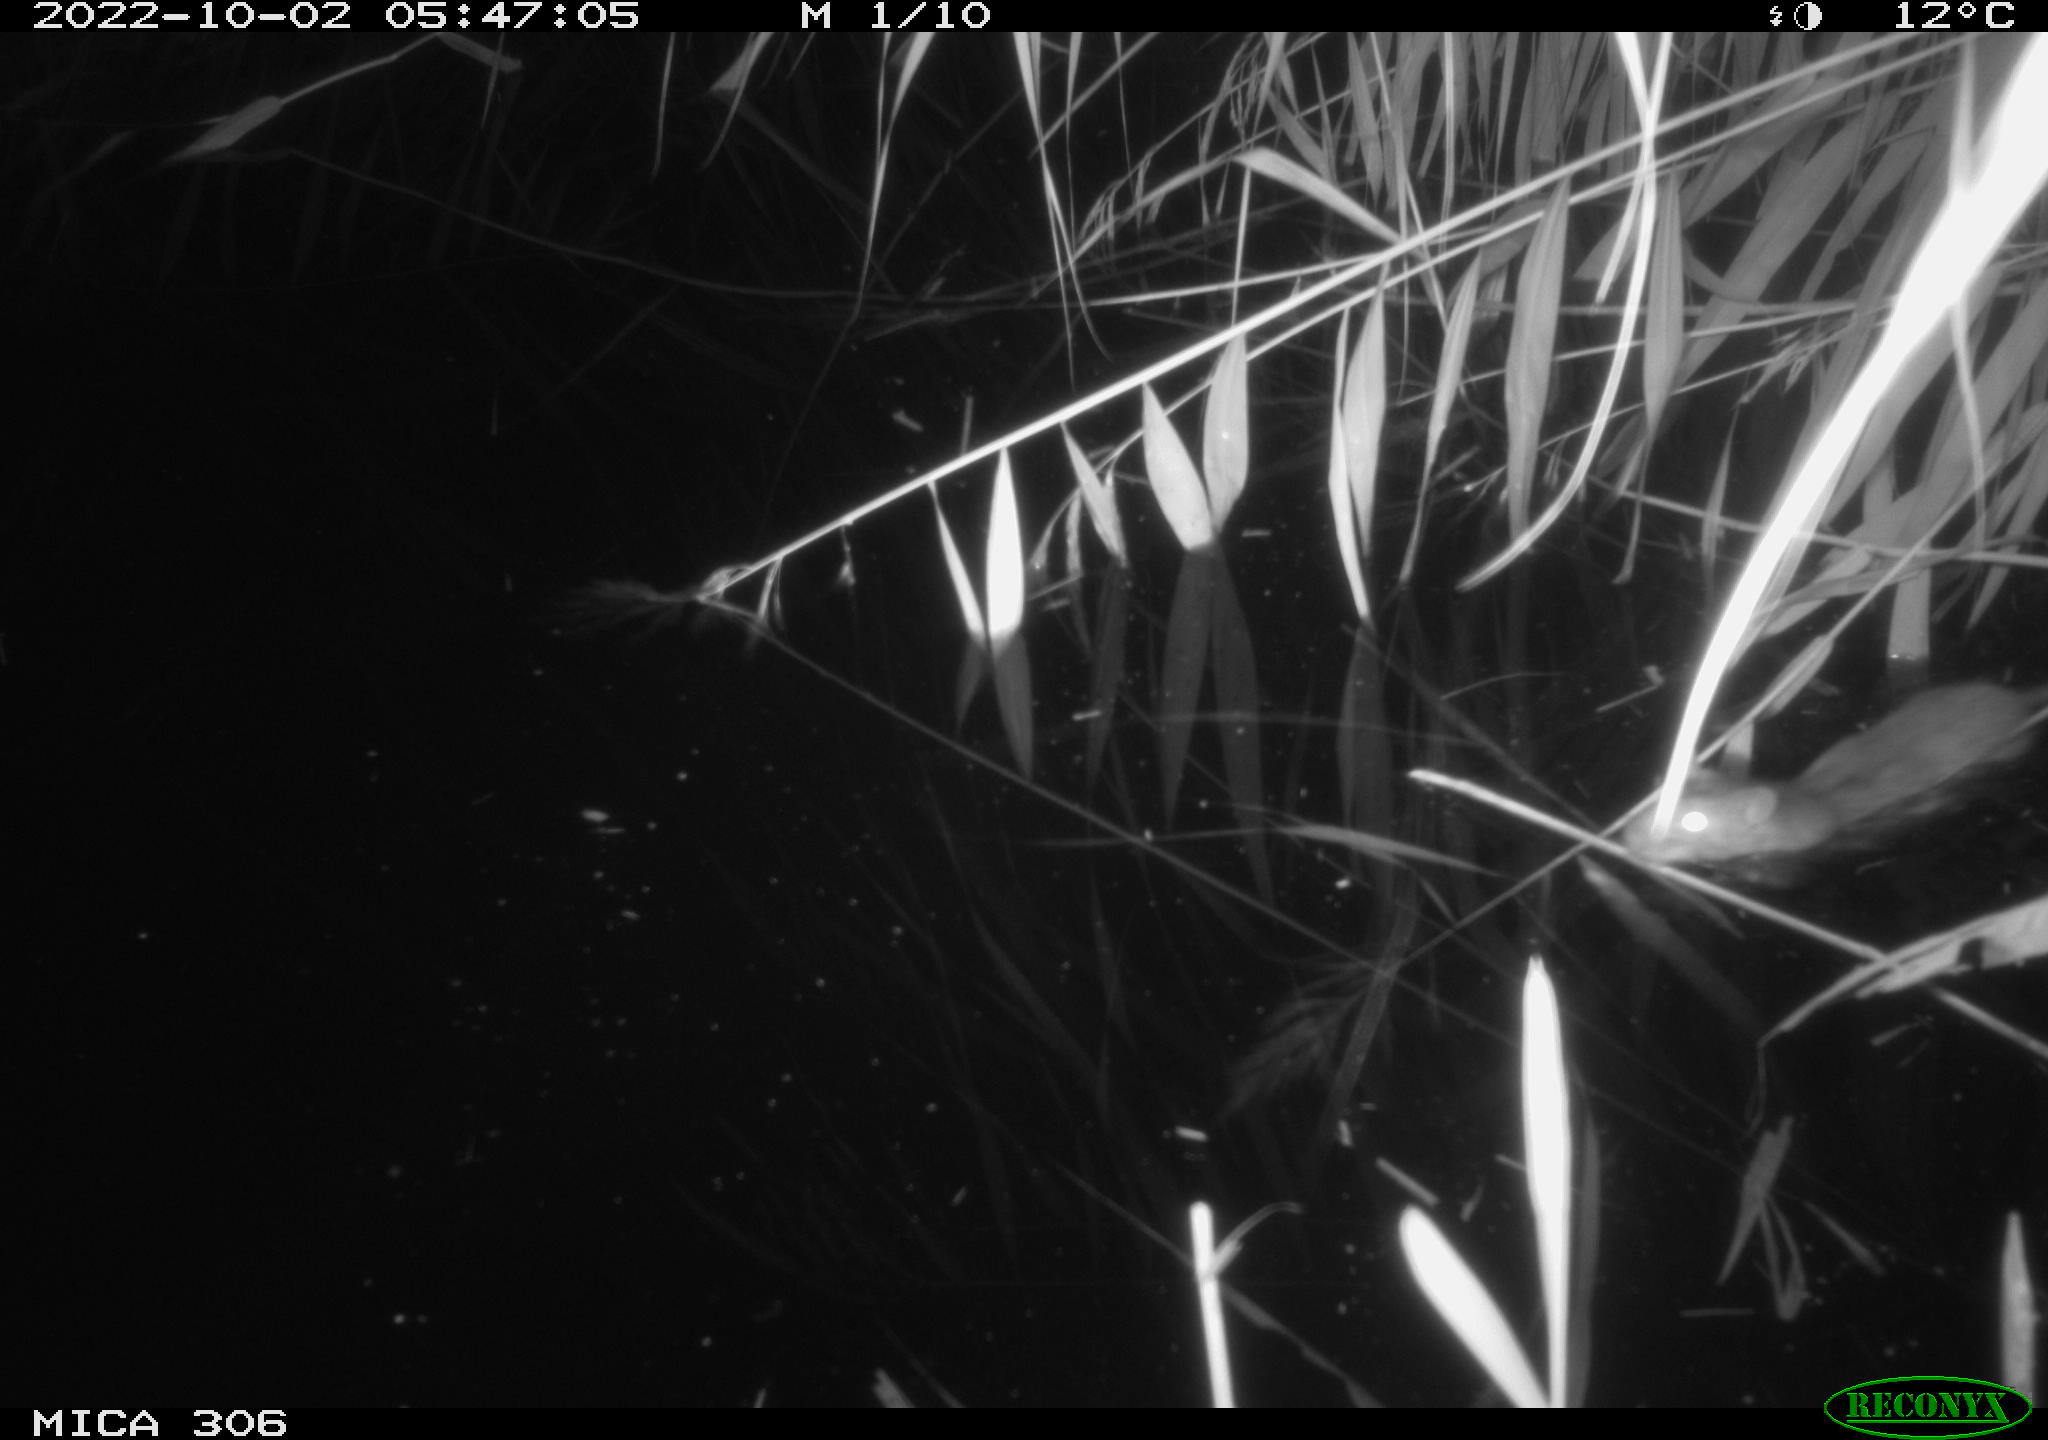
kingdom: Animalia
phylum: Chordata
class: Mammalia
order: Rodentia
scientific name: Rodentia
